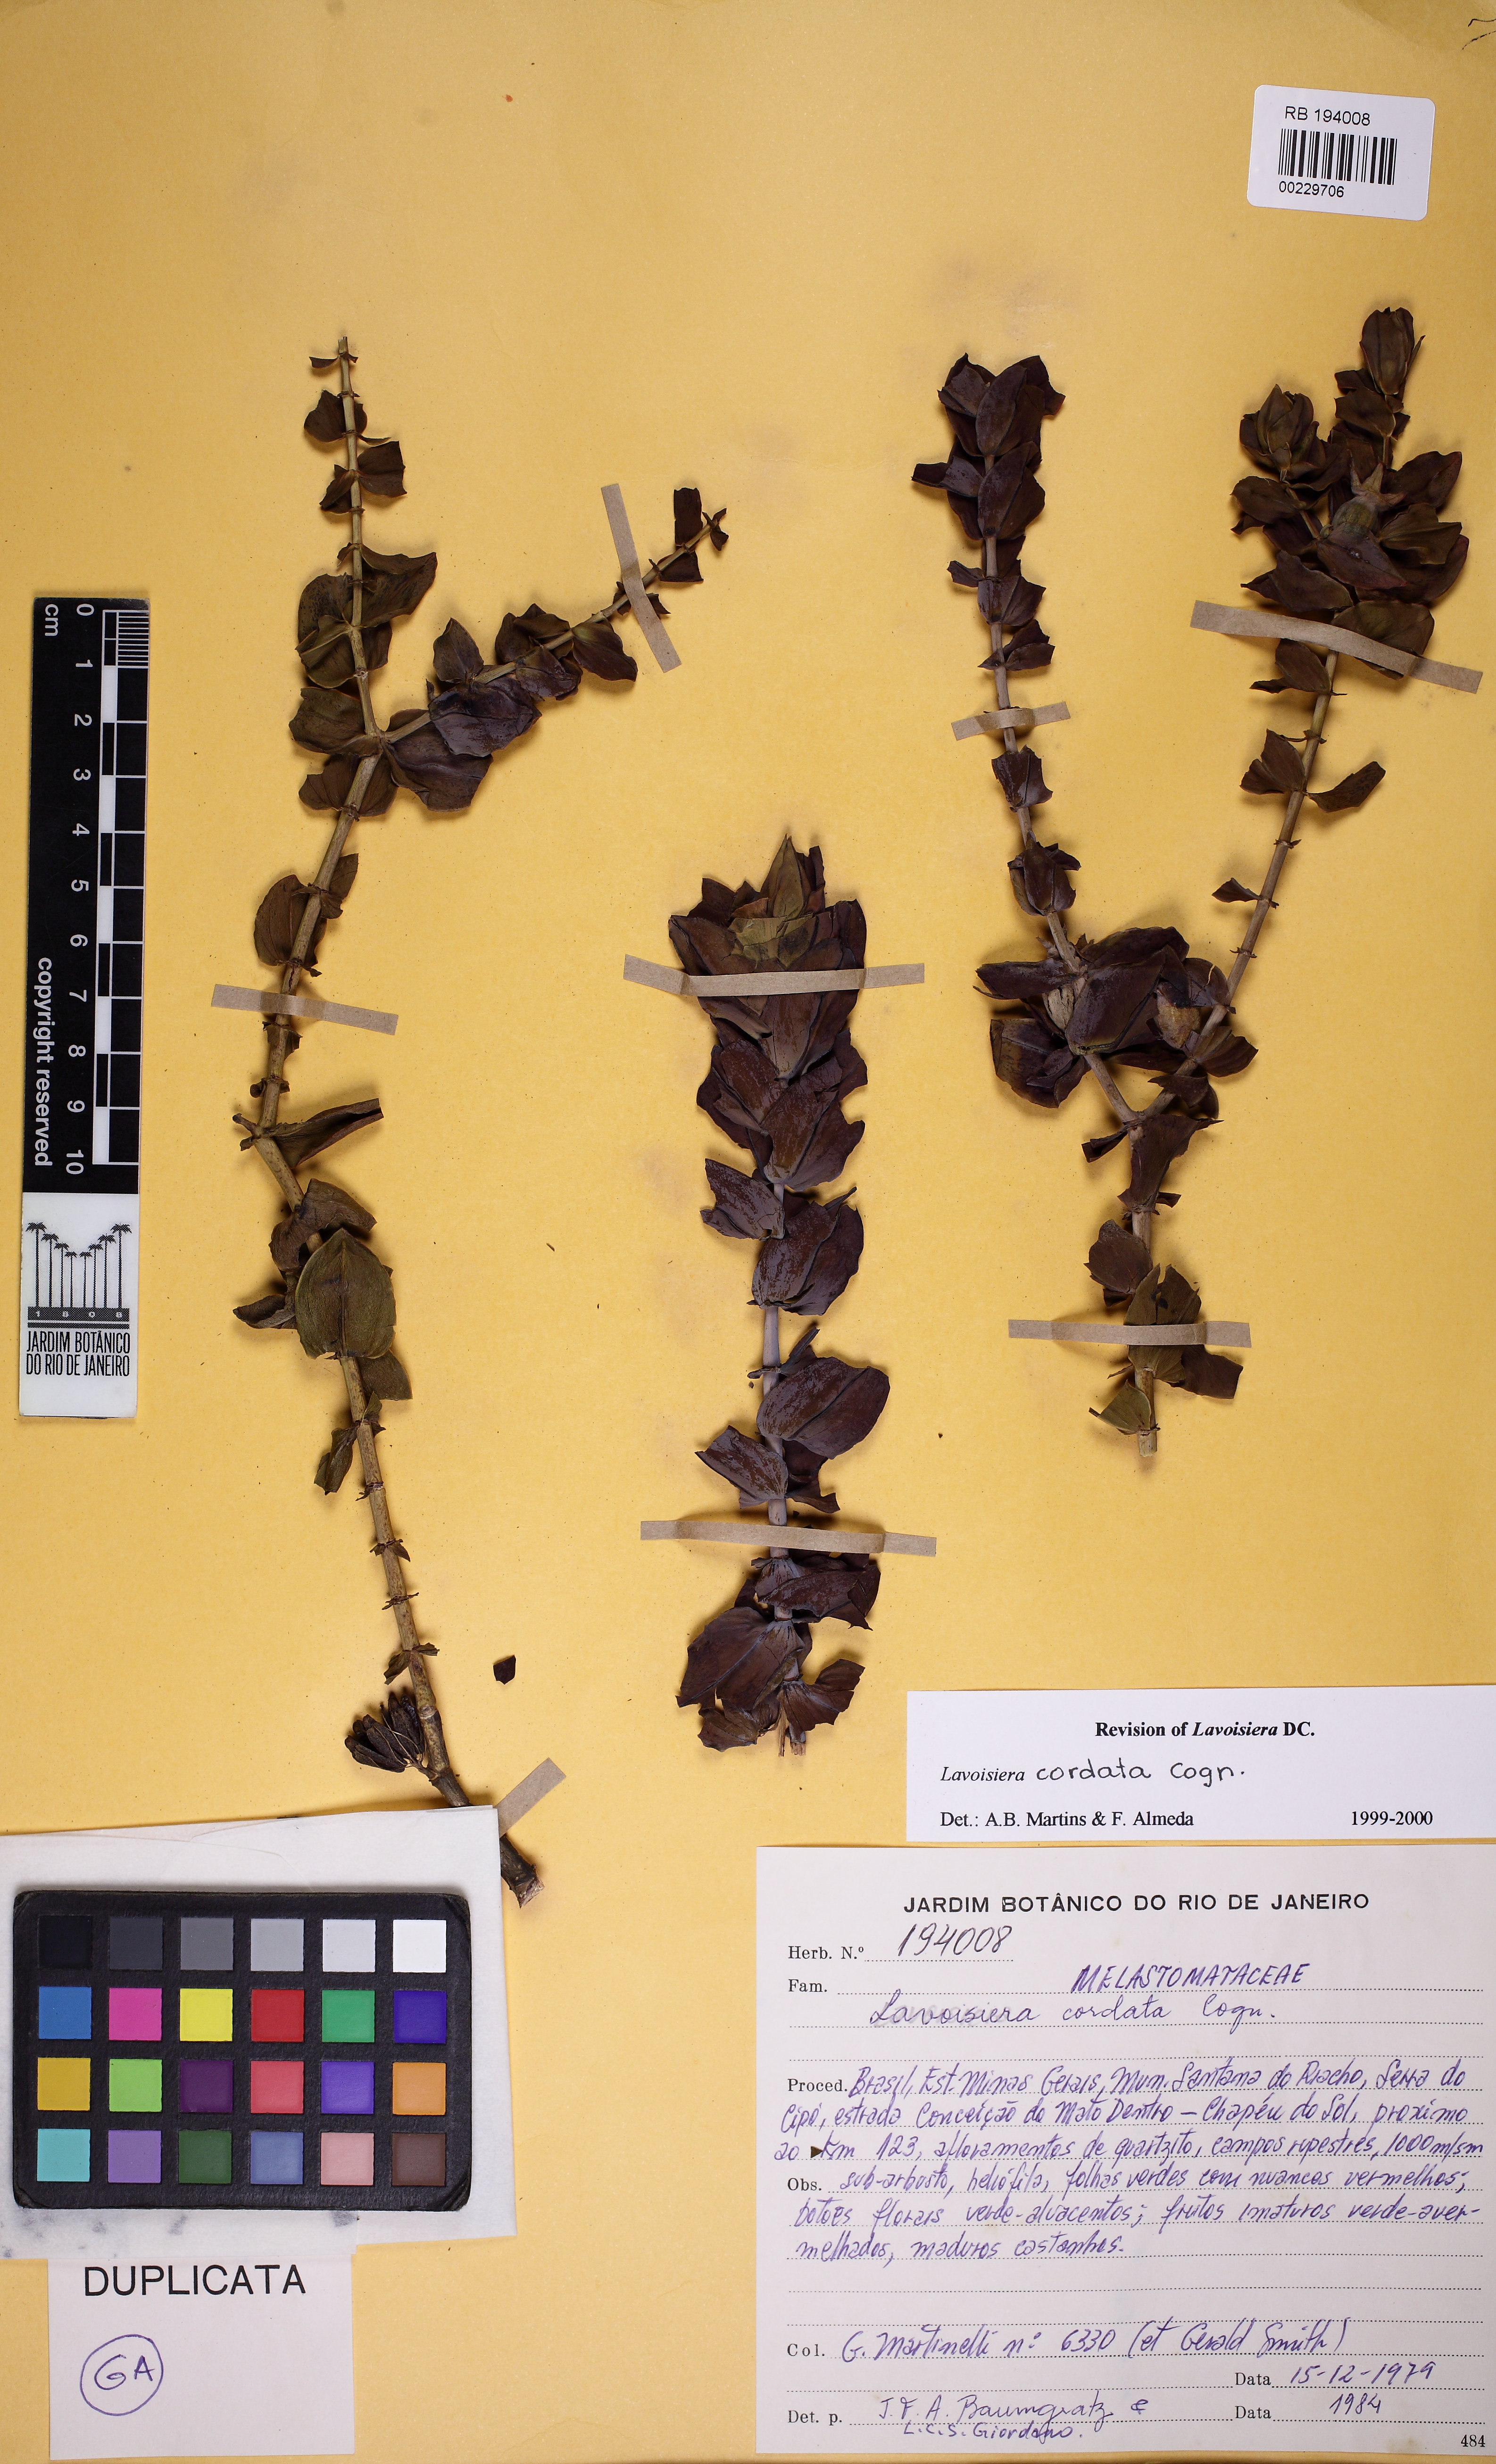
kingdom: Plantae
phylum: Tracheophyta
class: Magnoliopsida
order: Myrtales
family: Melastomataceae
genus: Microlicia
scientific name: Microlicia cordifolia
